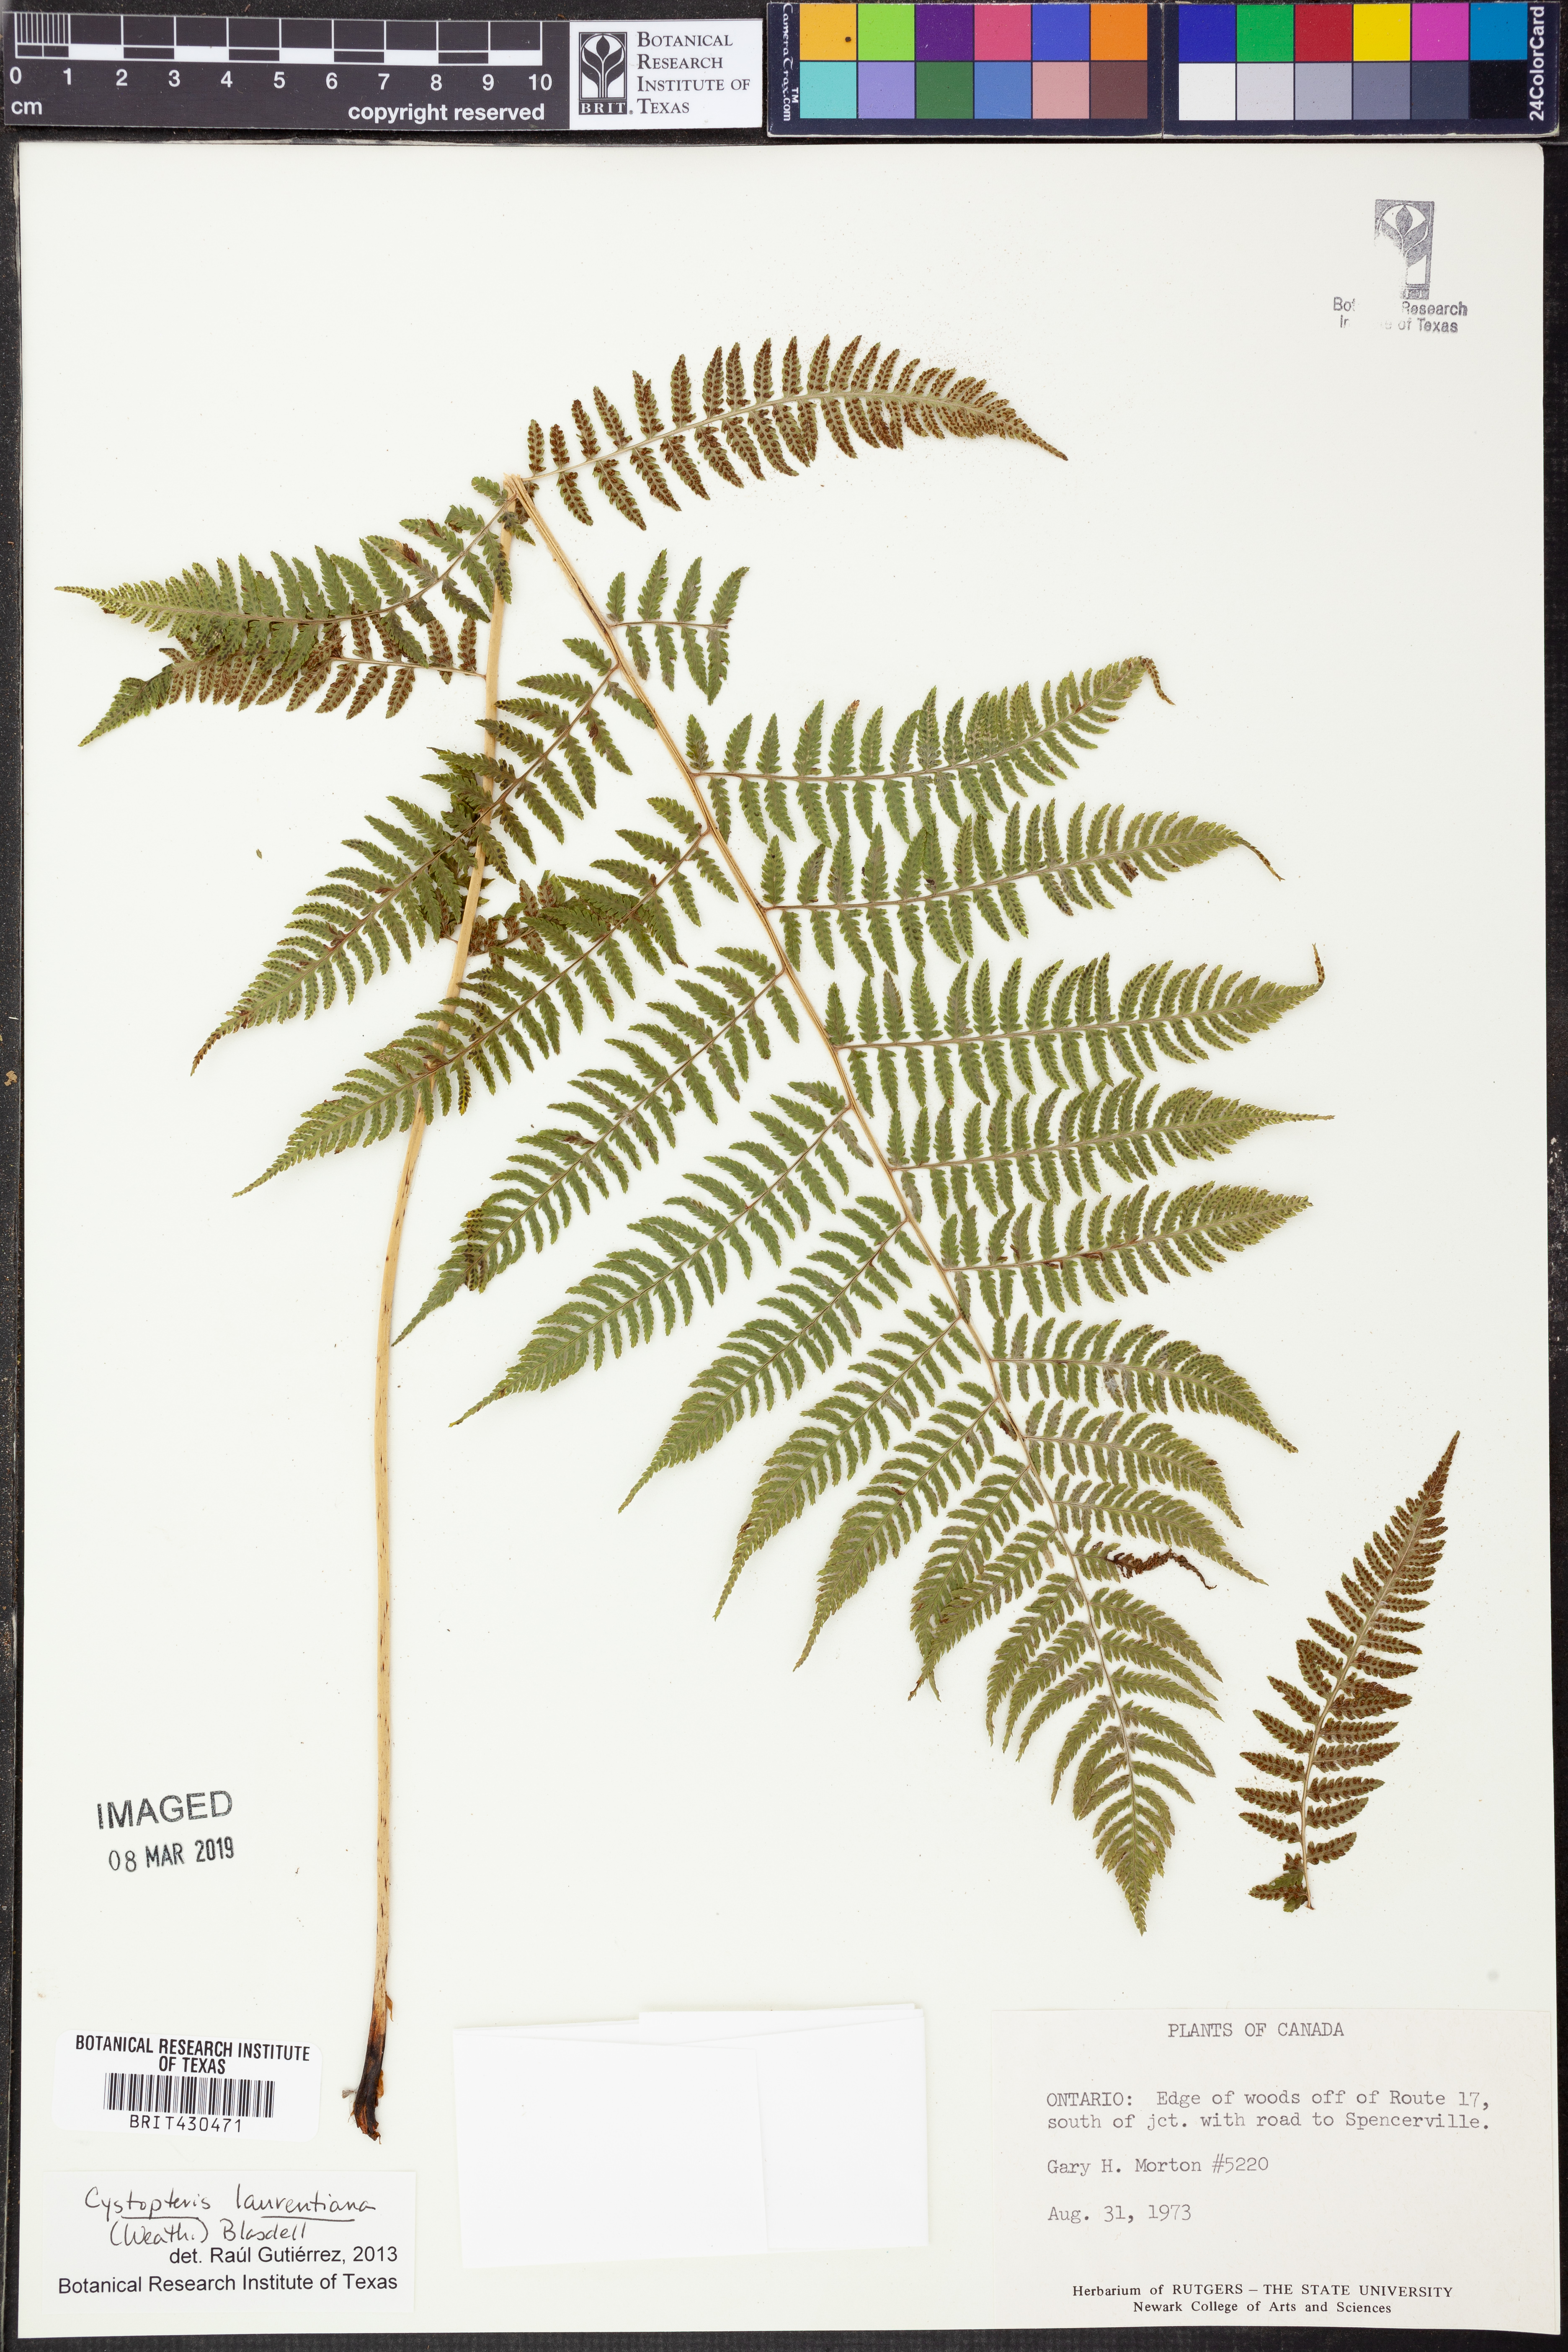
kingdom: Plantae
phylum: Tracheophyta
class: Polypodiopsida
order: Polypodiales
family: Cystopteridaceae
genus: Cystopteris
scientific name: Cystopteris laurentiana
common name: Blasdell's laurentian bladder fern
